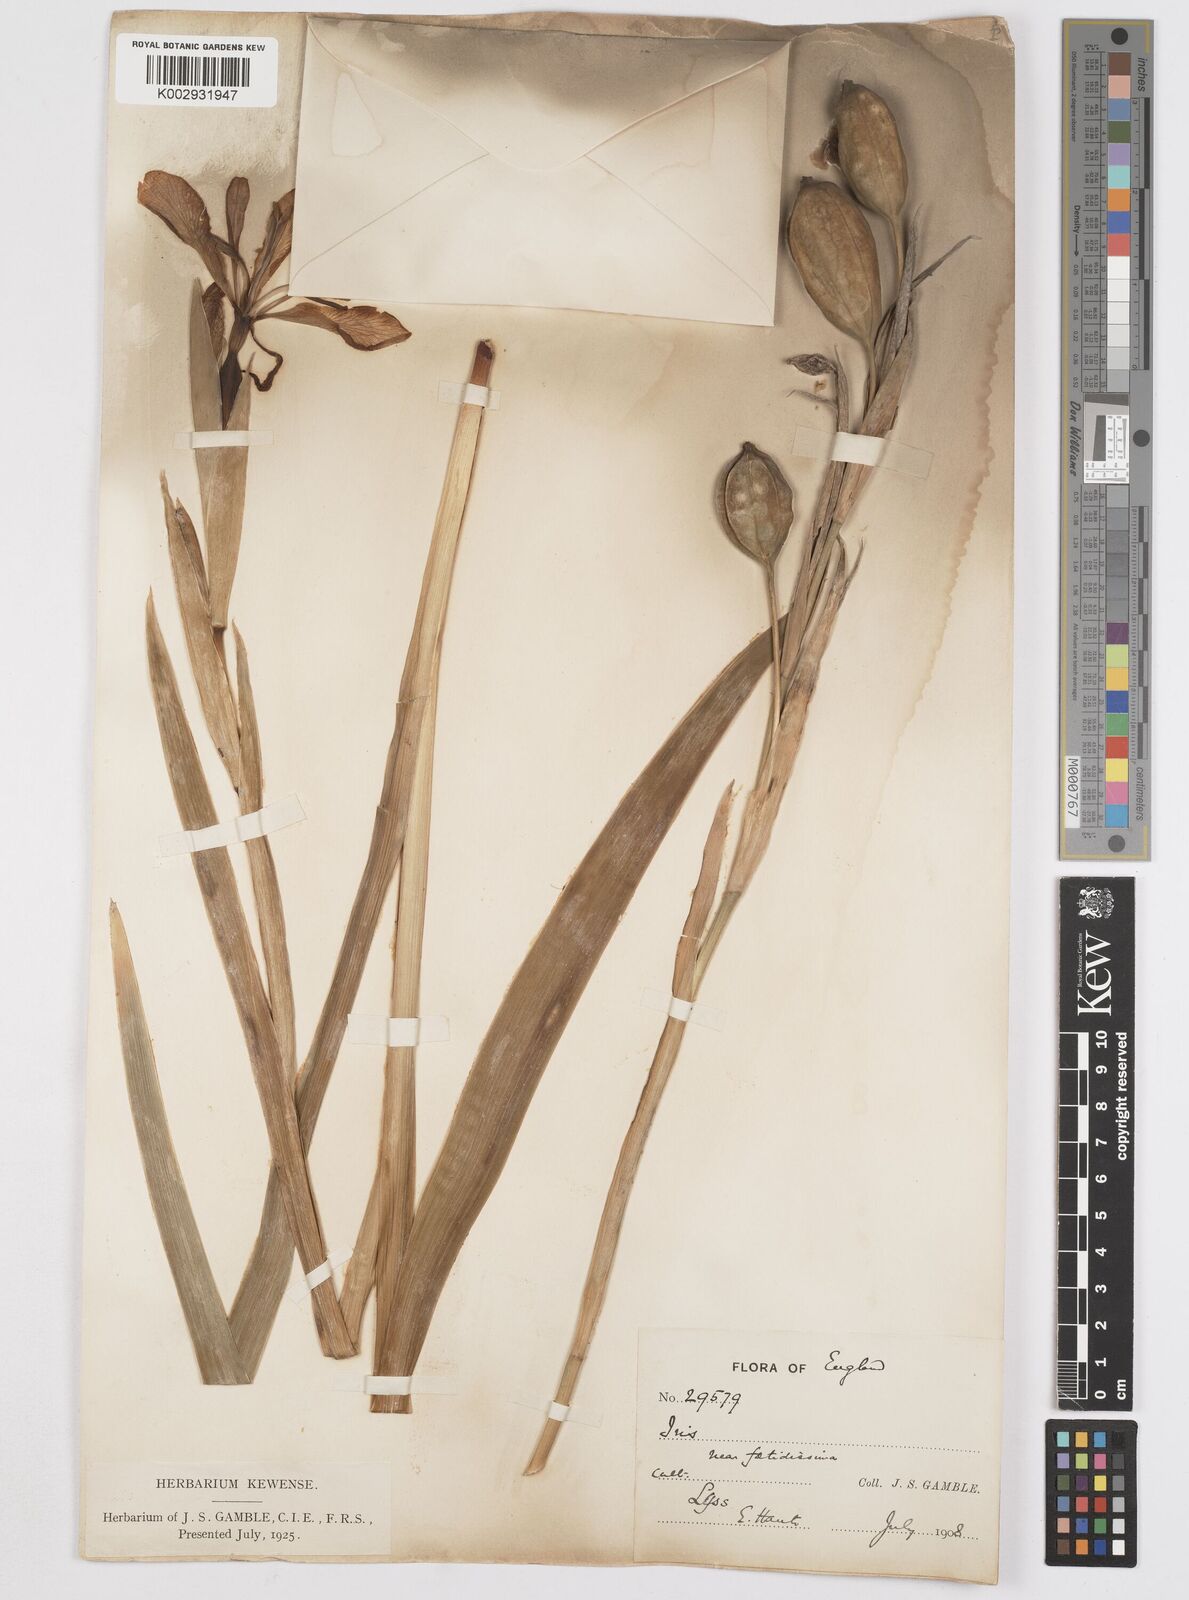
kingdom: Plantae
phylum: Tracheophyta
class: Liliopsida
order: Asparagales
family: Iridaceae
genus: Iris
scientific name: Iris foetidissima
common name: Stinking iris
